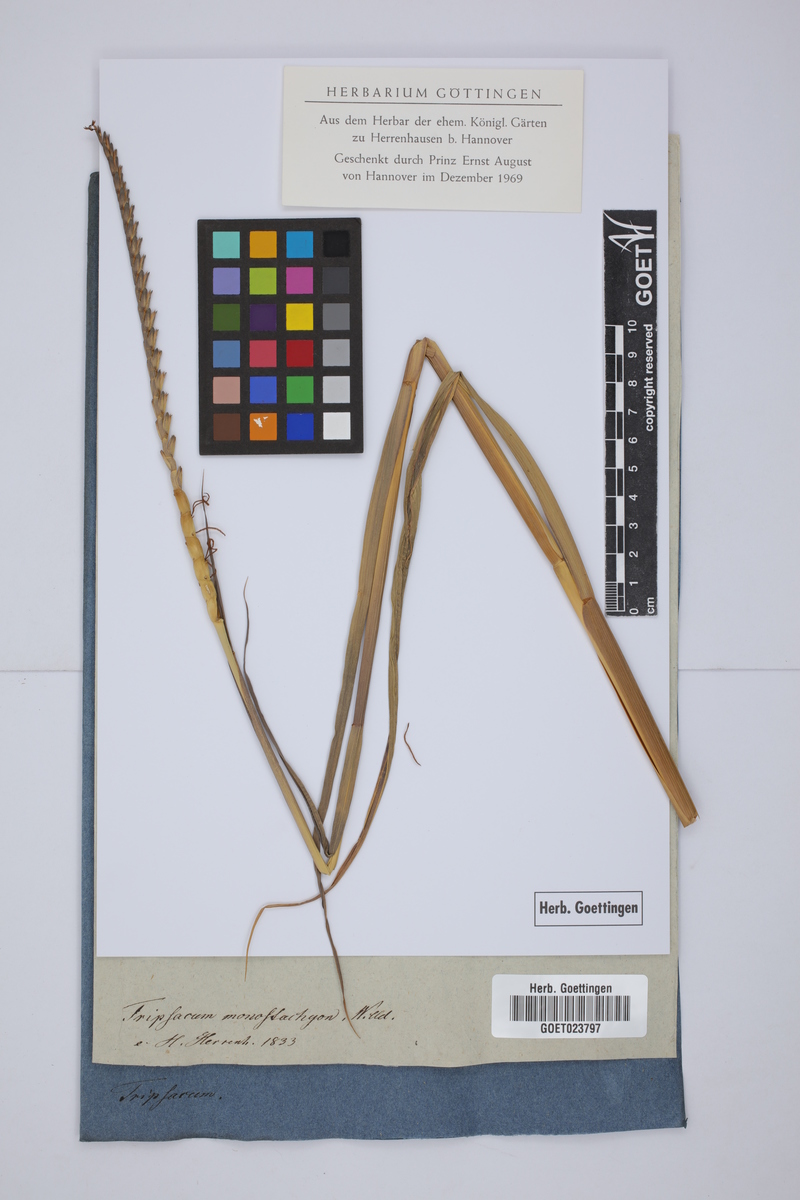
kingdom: Plantae
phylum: Tracheophyta
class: Liliopsida
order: Poales
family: Poaceae
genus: Tripsacum
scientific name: Tripsacum dactyloides
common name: Buffalo-grass
